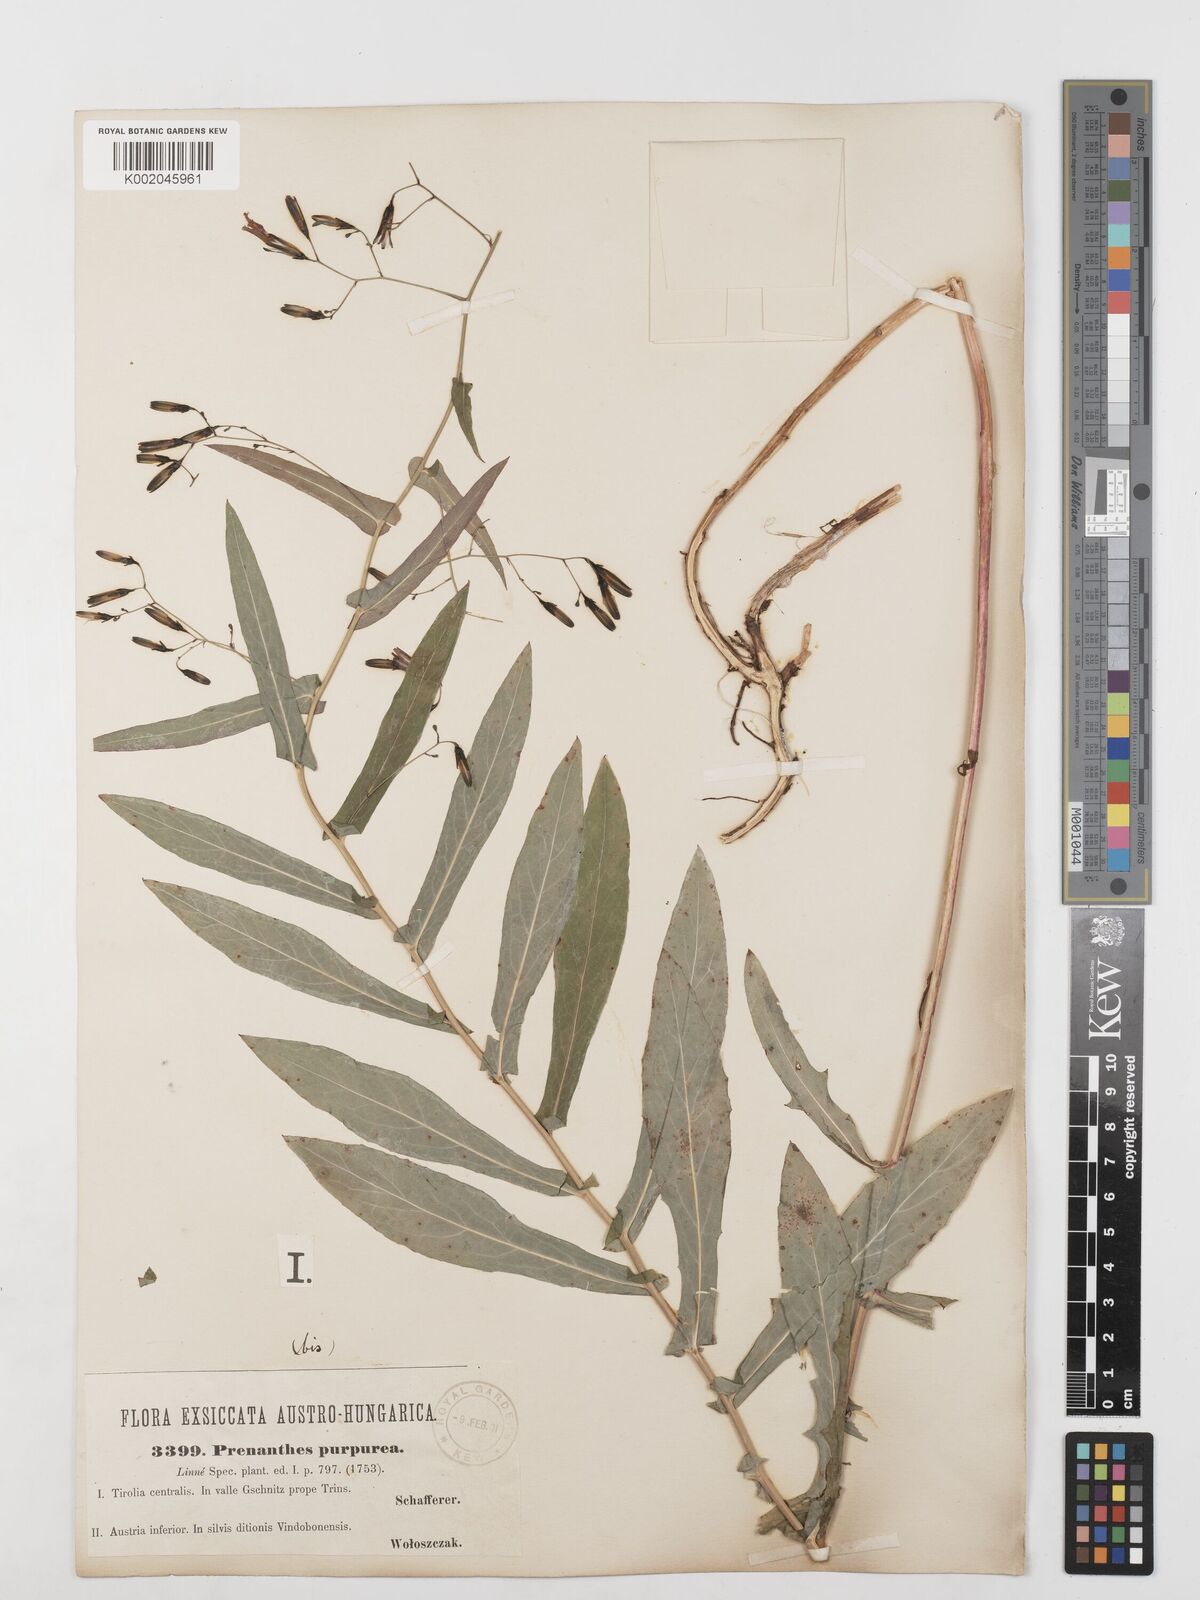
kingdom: Plantae
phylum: Tracheophyta
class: Magnoliopsida
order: Asterales
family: Asteraceae
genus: Prenanthes
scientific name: Prenanthes purpurea
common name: Purple lettuce
